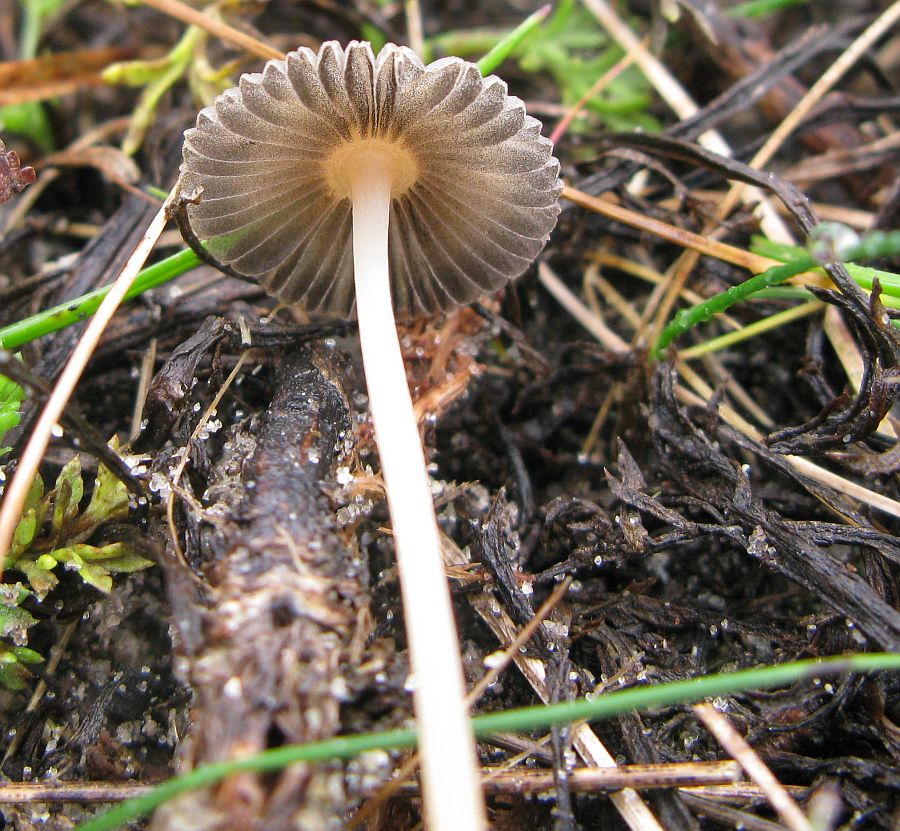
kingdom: Fungi
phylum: Basidiomycota
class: Agaricomycetes
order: Agaricales
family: Psathyrellaceae
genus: Parasola
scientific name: Parasola megasperma
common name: storsporet hjulhat
